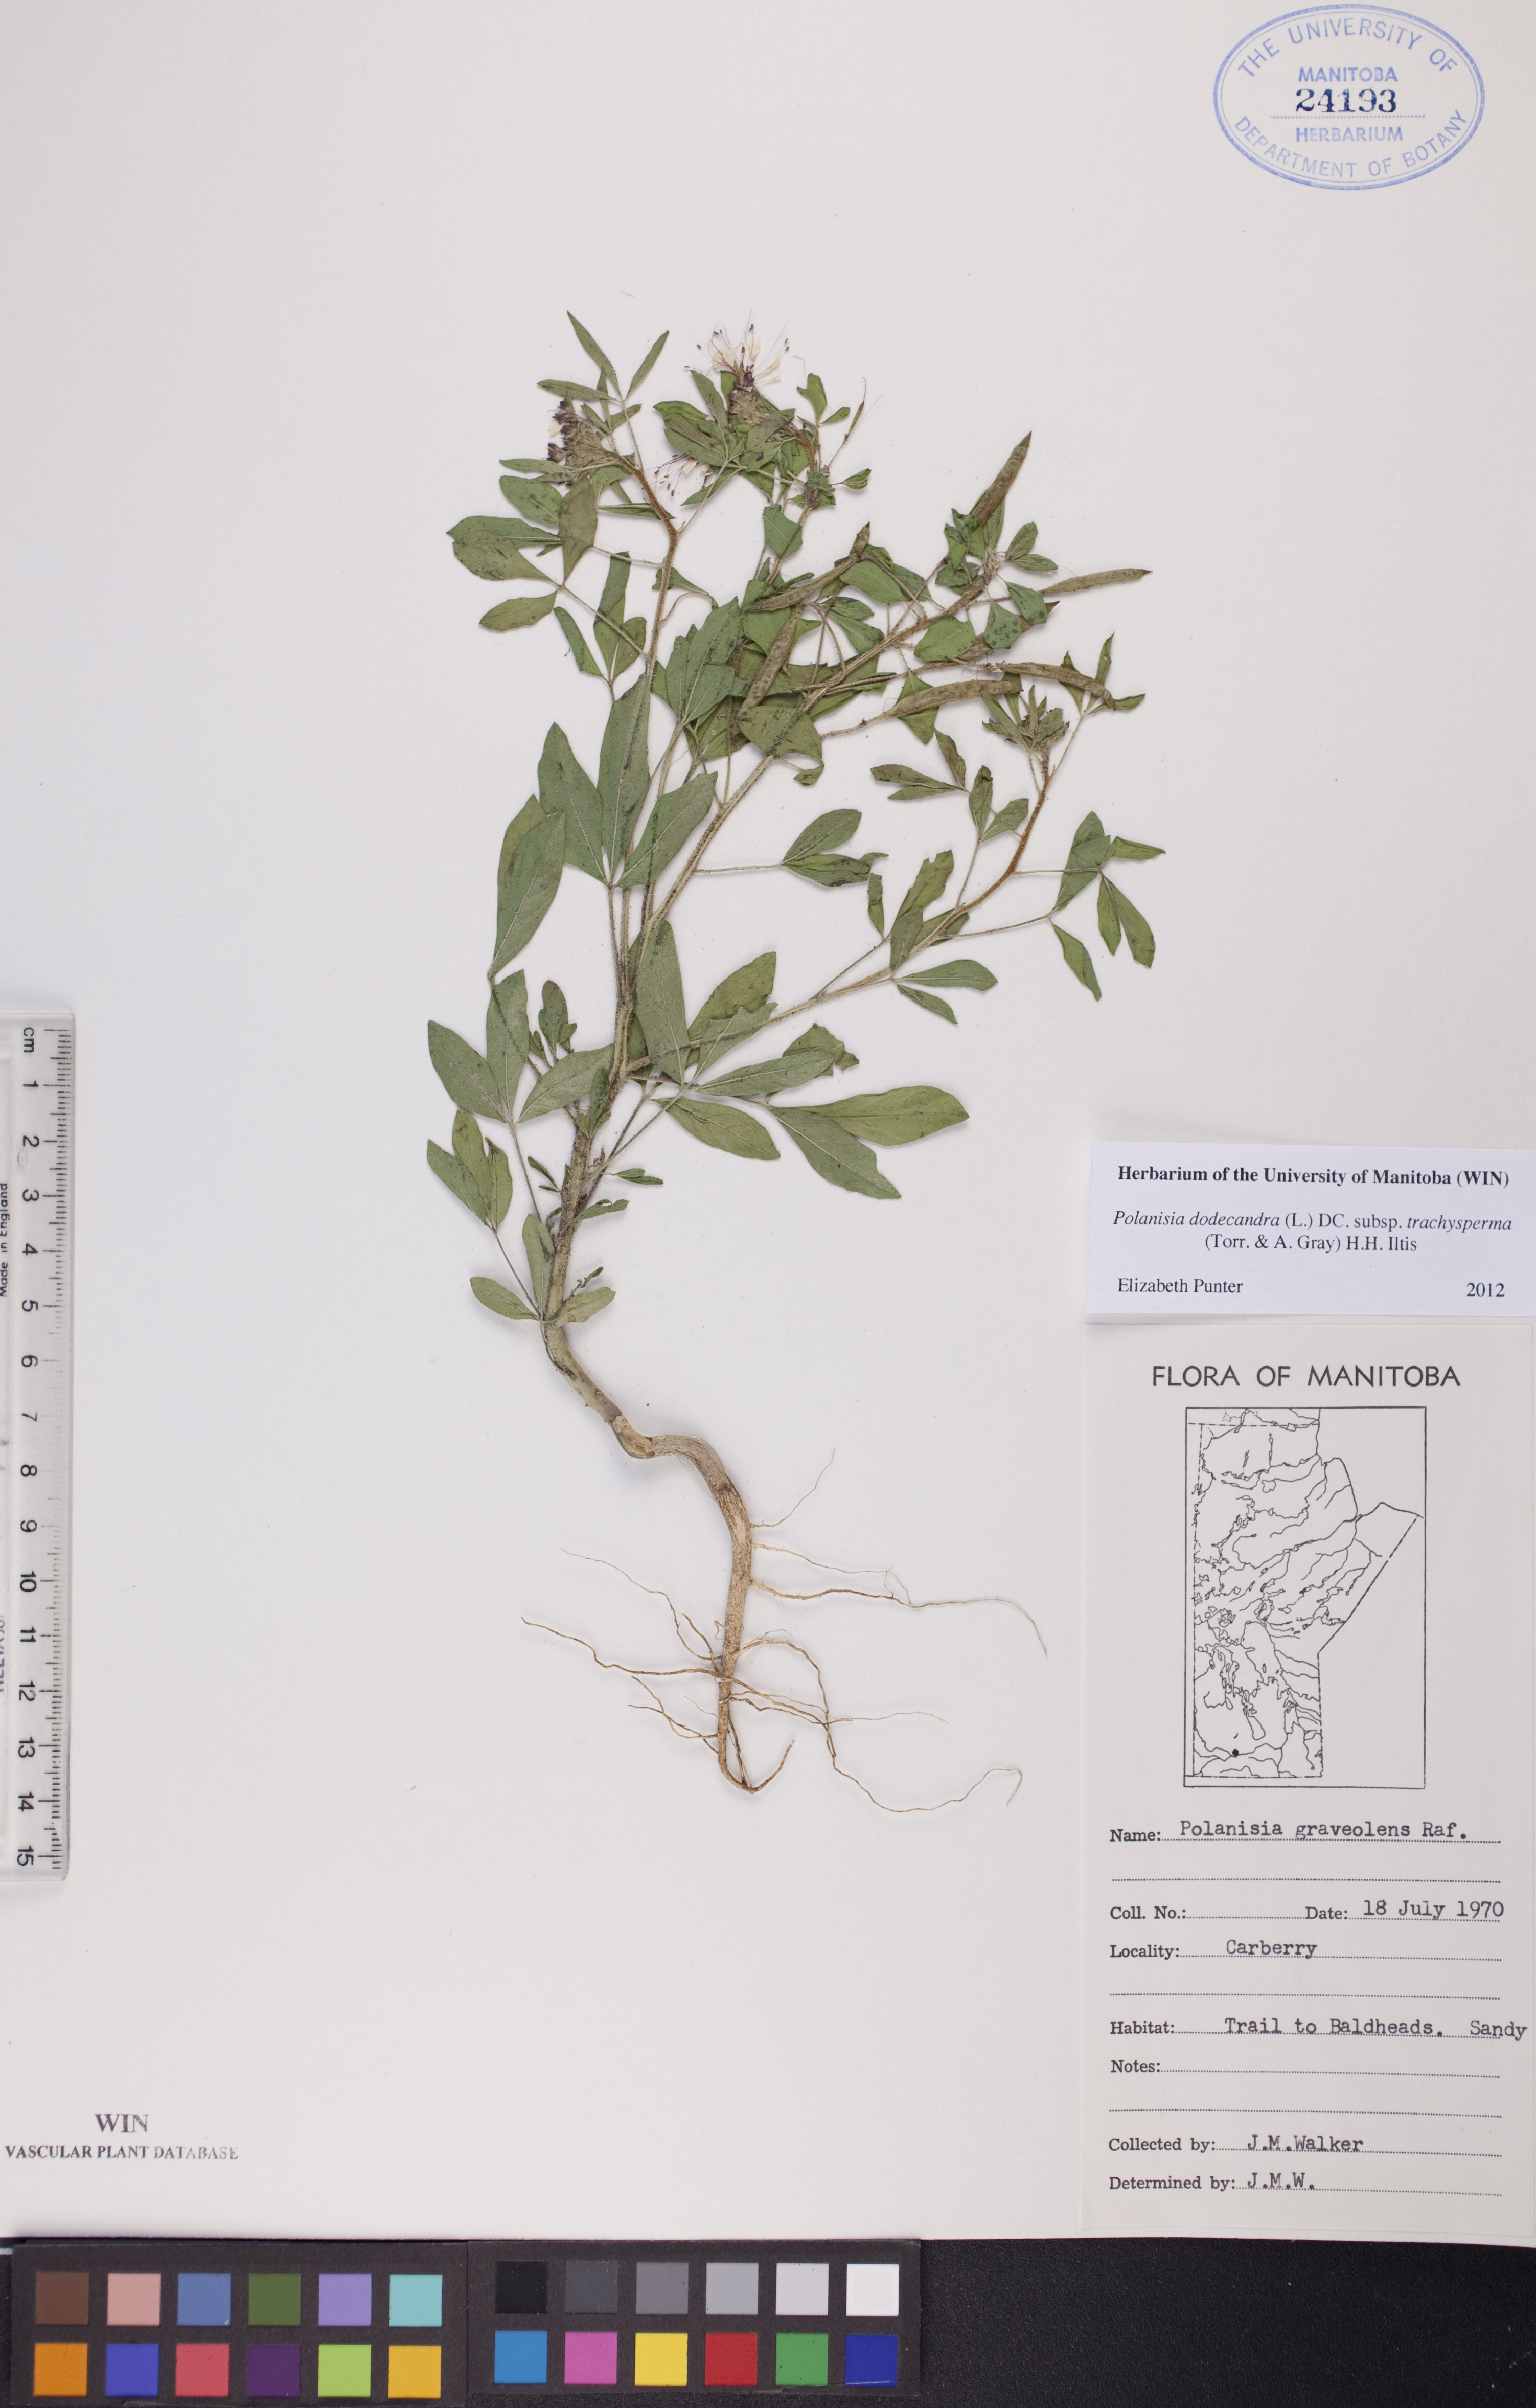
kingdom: Plantae
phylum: Tracheophyta
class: Magnoliopsida
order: Brassicales
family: Cleomaceae
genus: Polanisia
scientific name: Polanisia trachysperma
